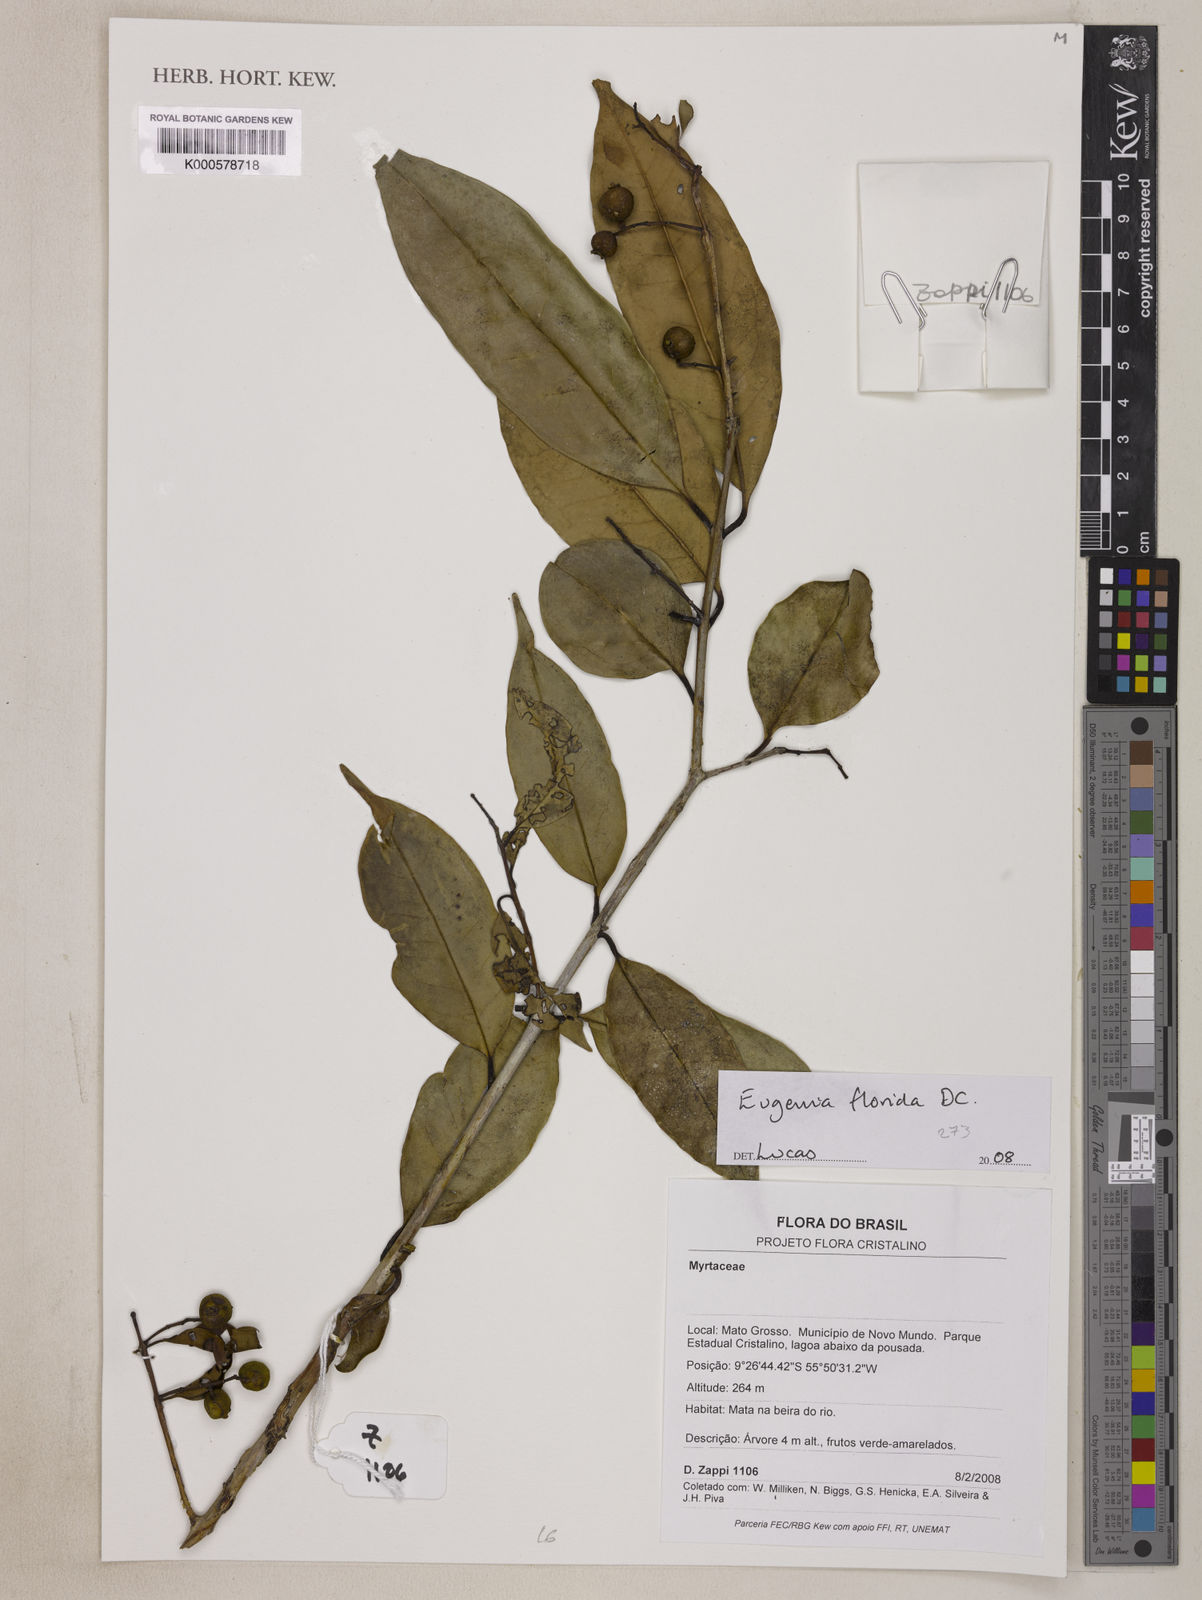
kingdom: Plantae
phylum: Tracheophyta
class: Magnoliopsida
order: Myrtales
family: Myrtaceae
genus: Eugenia
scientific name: Eugenia florida
